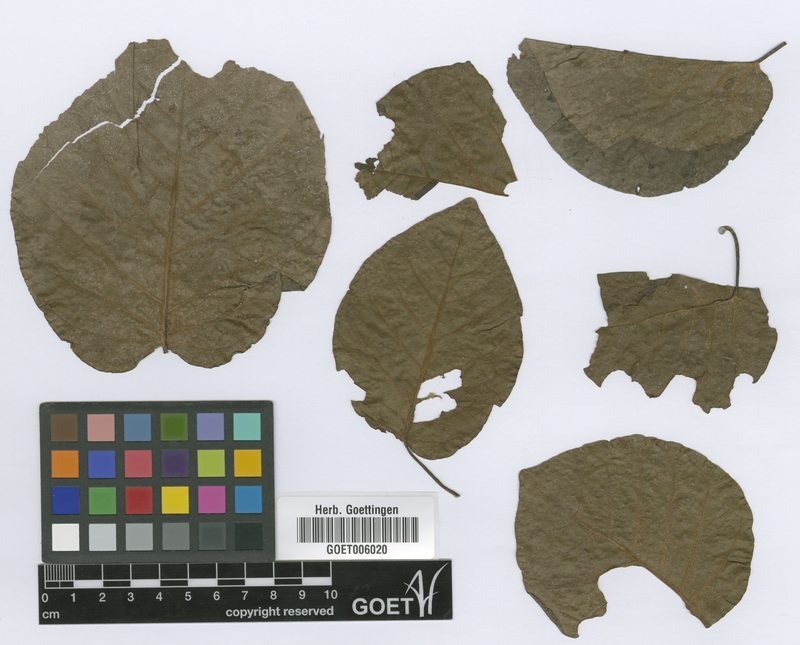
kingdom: Plantae
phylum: Tracheophyta
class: Magnoliopsida
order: Caryophyllales
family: Polygonaceae
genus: Coccoloba
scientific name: Coccoloba tiliacea
